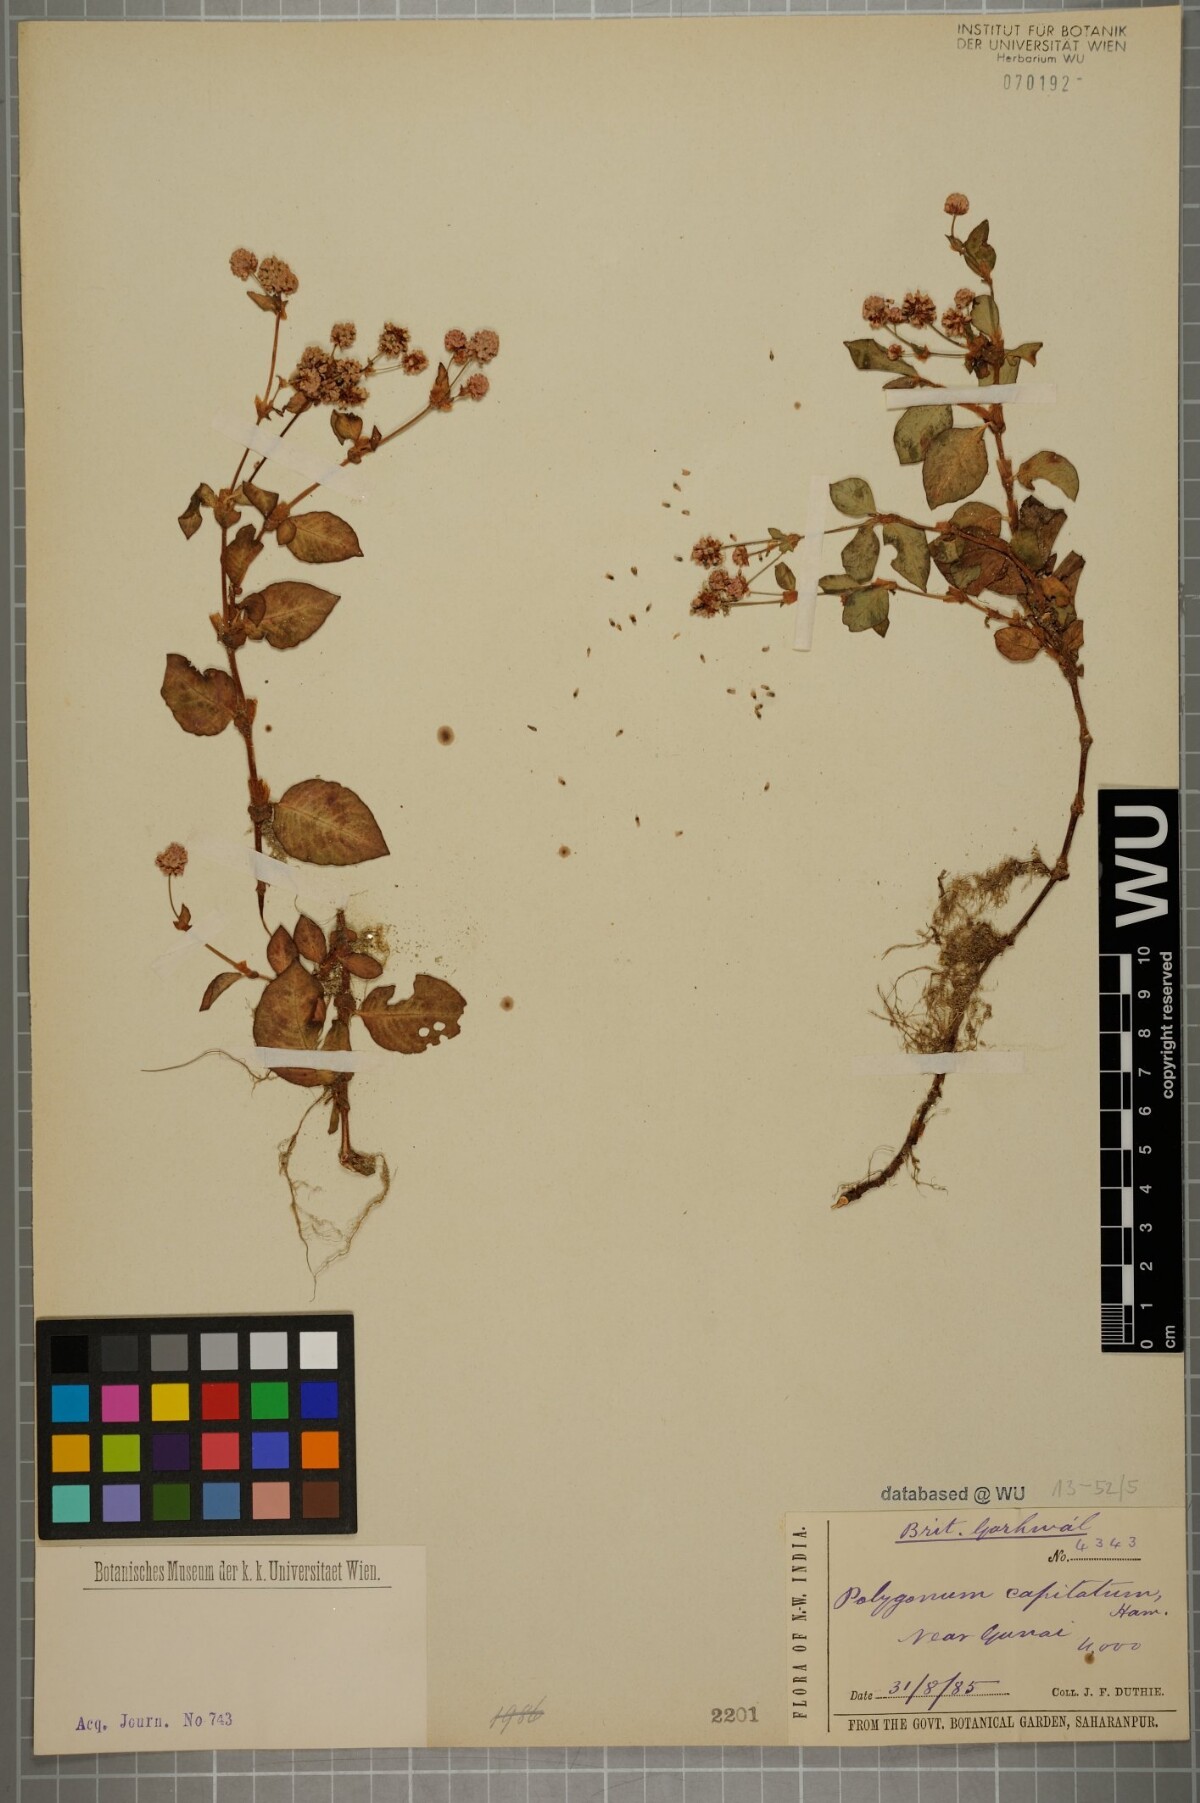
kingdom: Plantae
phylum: Tracheophyta
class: Magnoliopsida
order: Caryophyllales
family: Polygonaceae
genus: Persicaria
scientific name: Persicaria capitata
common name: Pinkhead smartweed
